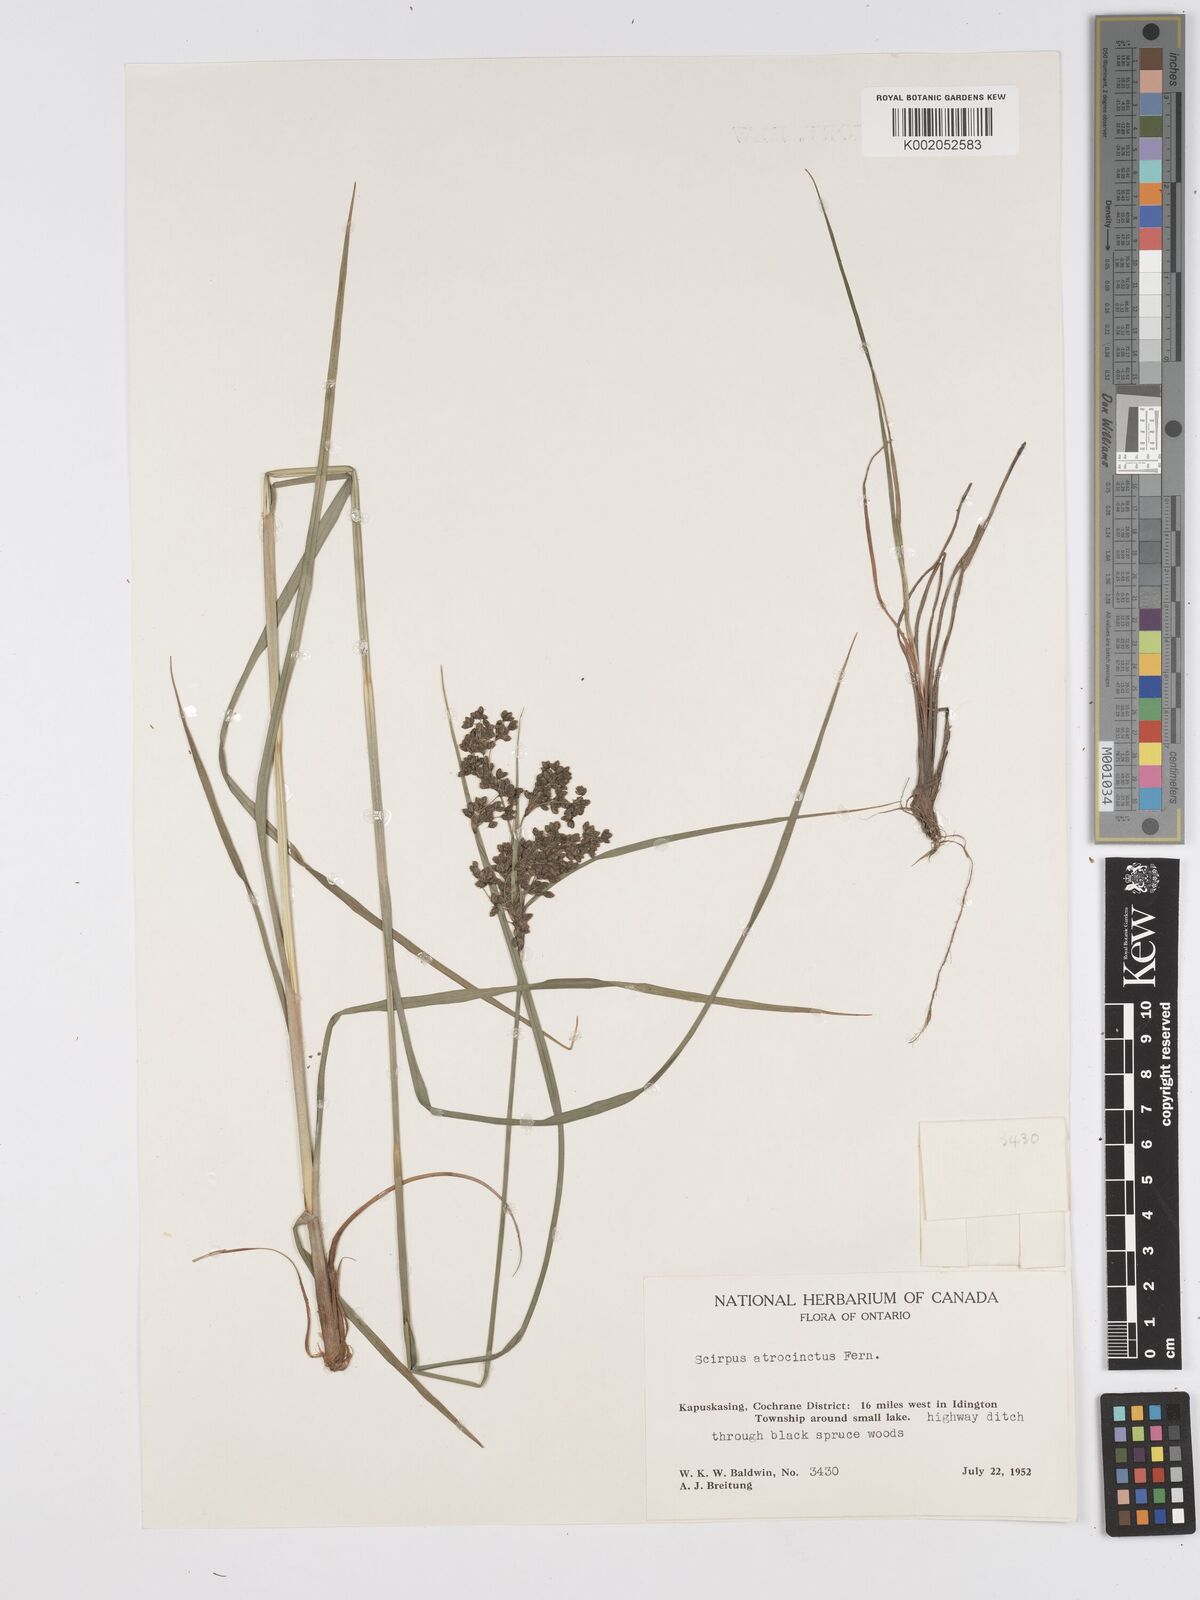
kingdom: Plantae
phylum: Tracheophyta
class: Liliopsida
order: Poales
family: Cyperaceae
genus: Scirpus
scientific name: Scirpus atrocinctus
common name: Black-girdled bulrush
